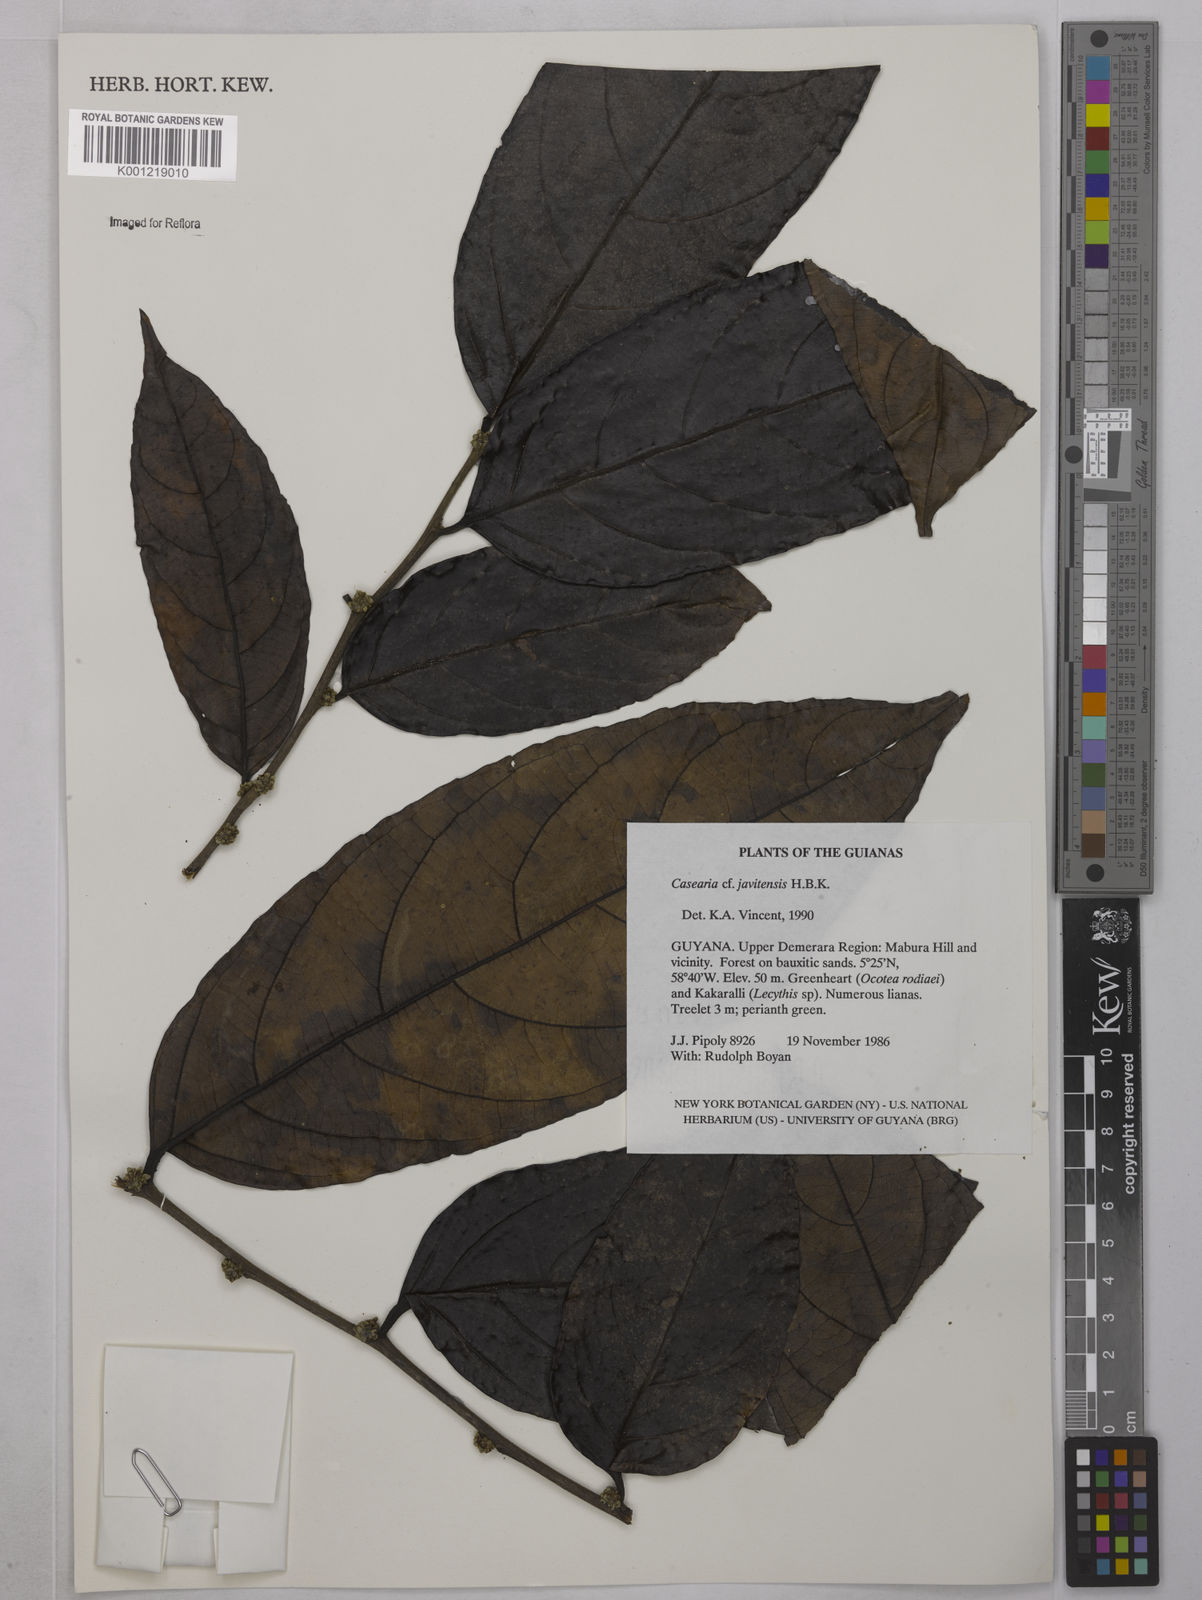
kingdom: Plantae
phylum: Tracheophyta
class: Magnoliopsida
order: Malpighiales
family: Salicaceae
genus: Piparea
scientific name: Piparea multiflora
